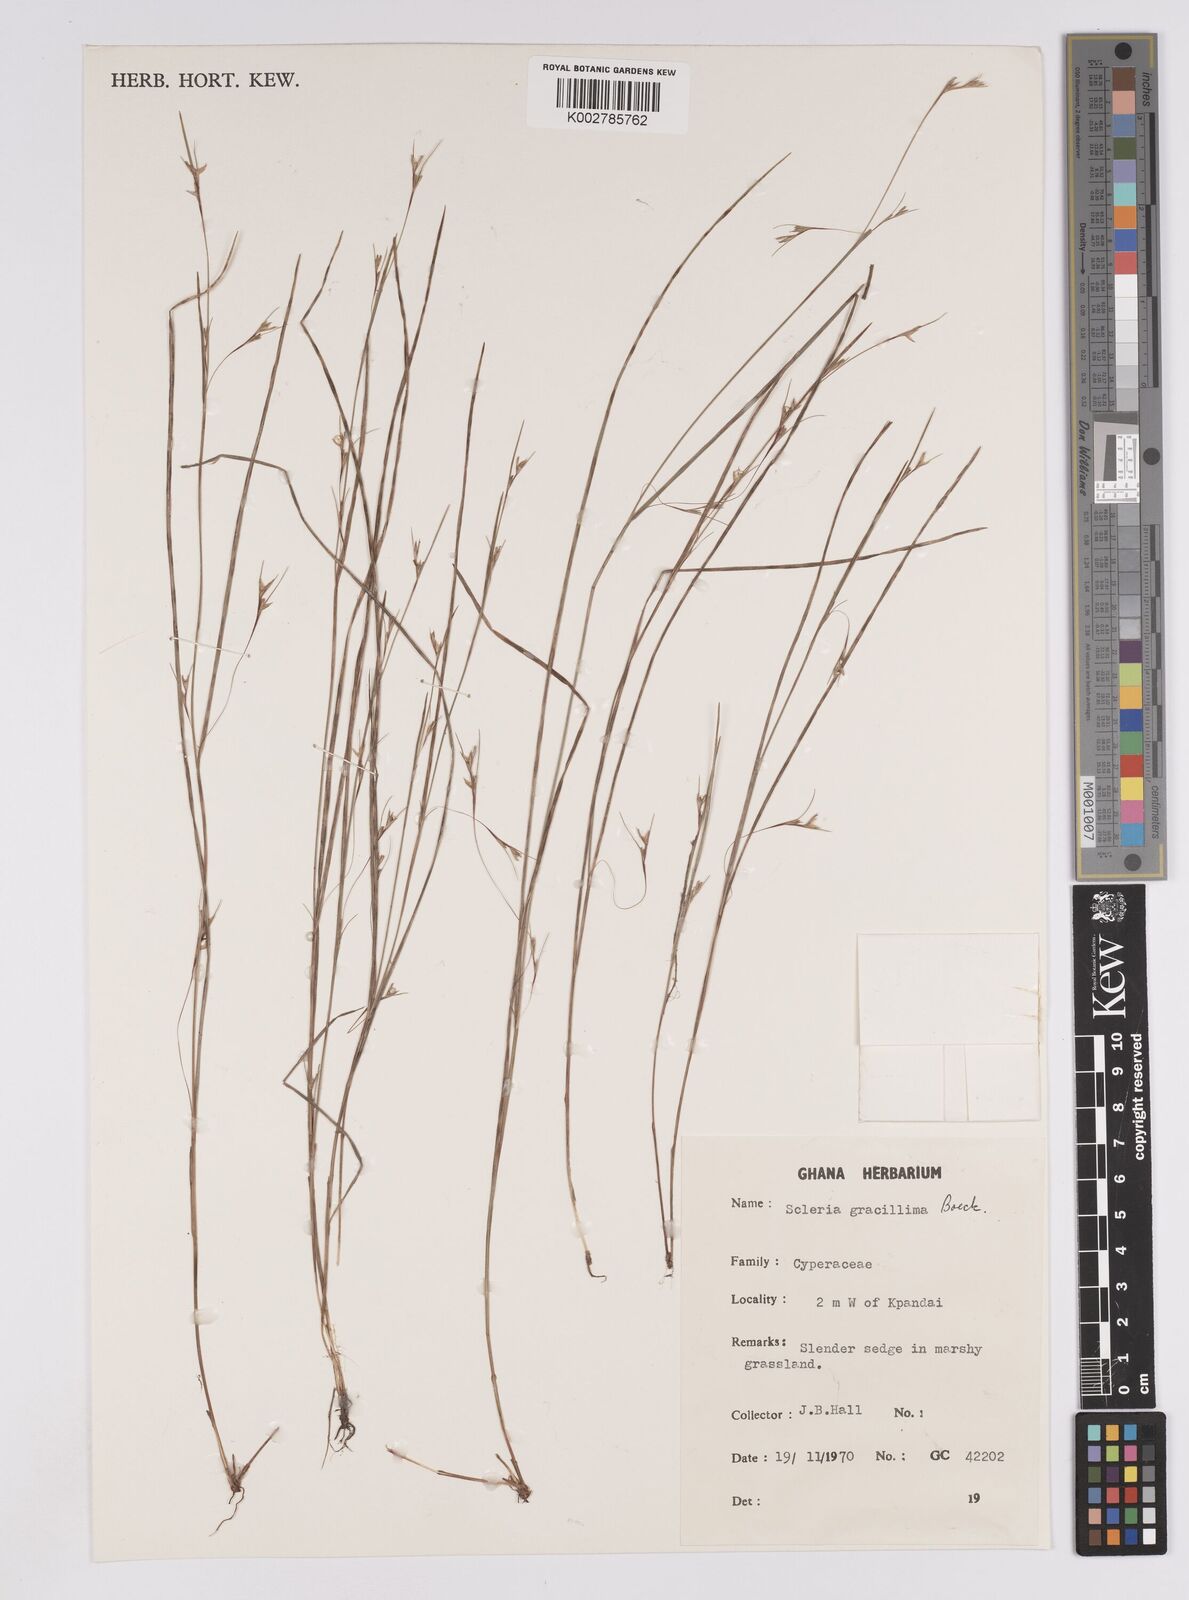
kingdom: Plantae
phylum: Tracheophyta
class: Liliopsida
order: Poales
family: Cyperaceae
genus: Scleria
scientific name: Scleria gracillima
